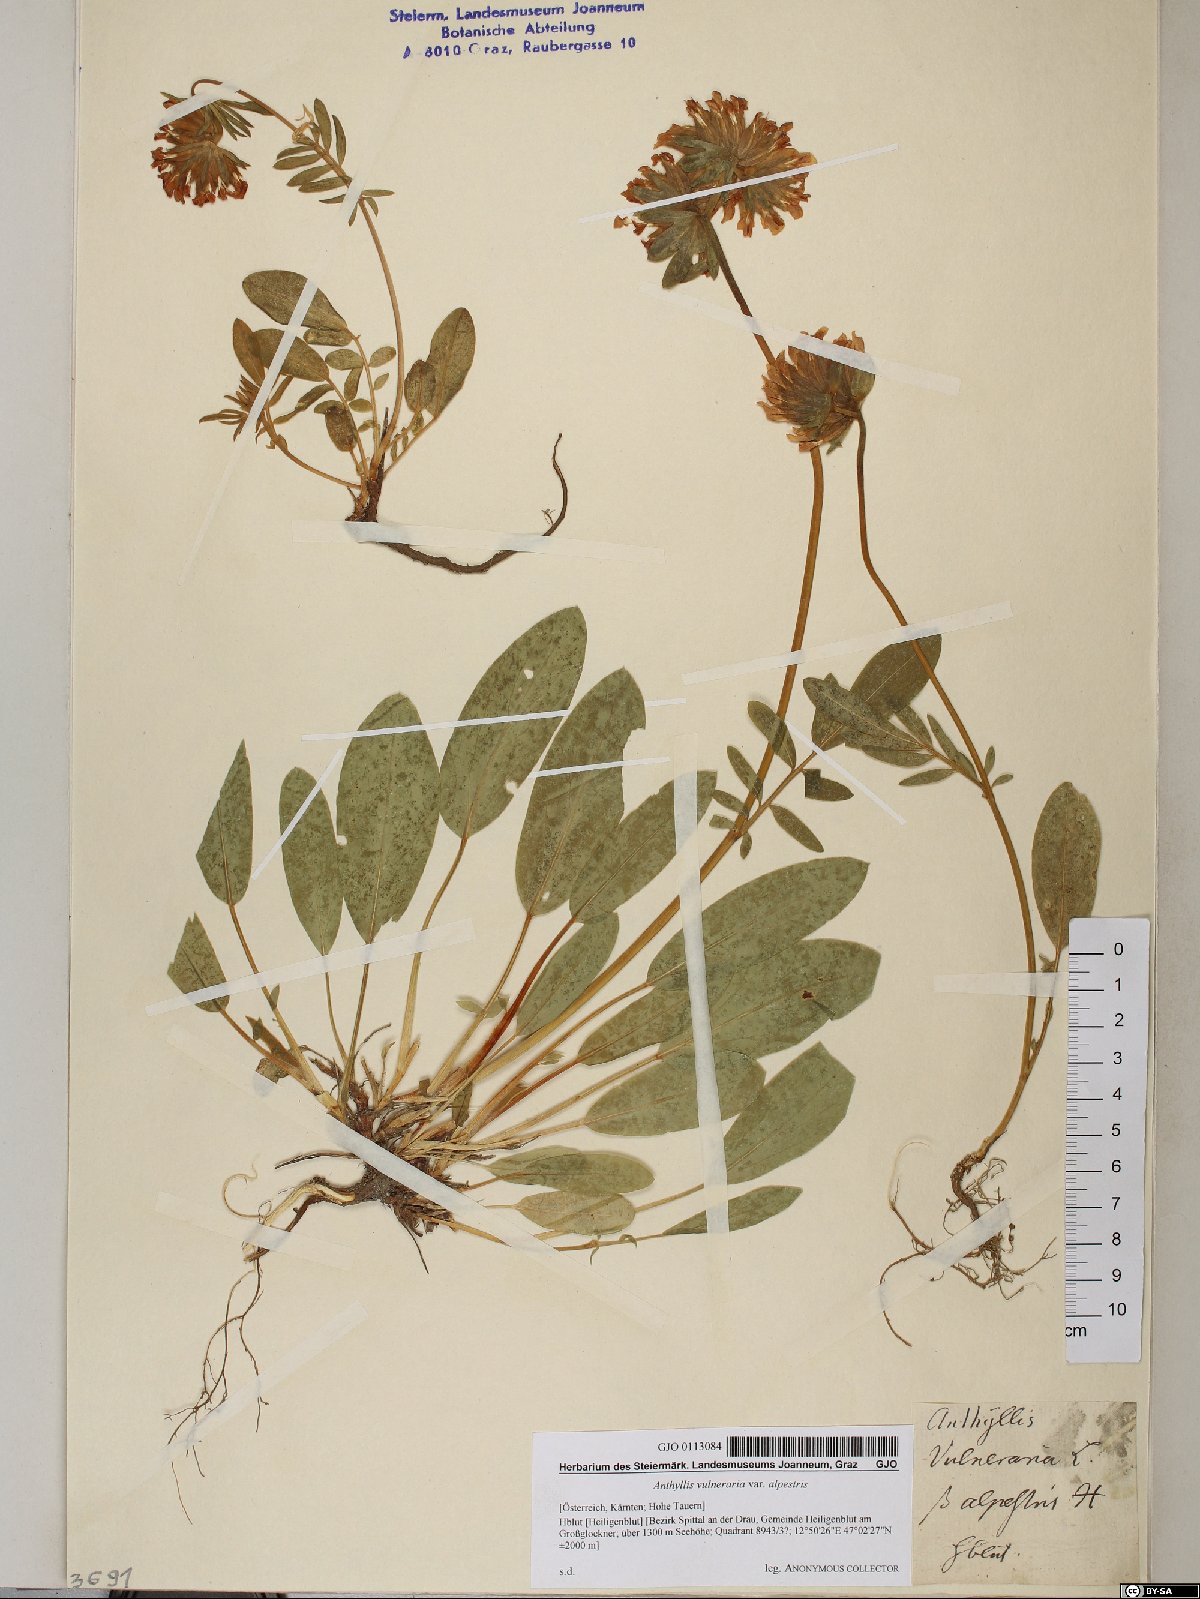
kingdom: Plantae
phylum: Tracheophyta
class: Magnoliopsida
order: Fabales
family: Fabaceae
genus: Anthyllis
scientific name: Anthyllis vulneraria
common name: Kidney vetch
